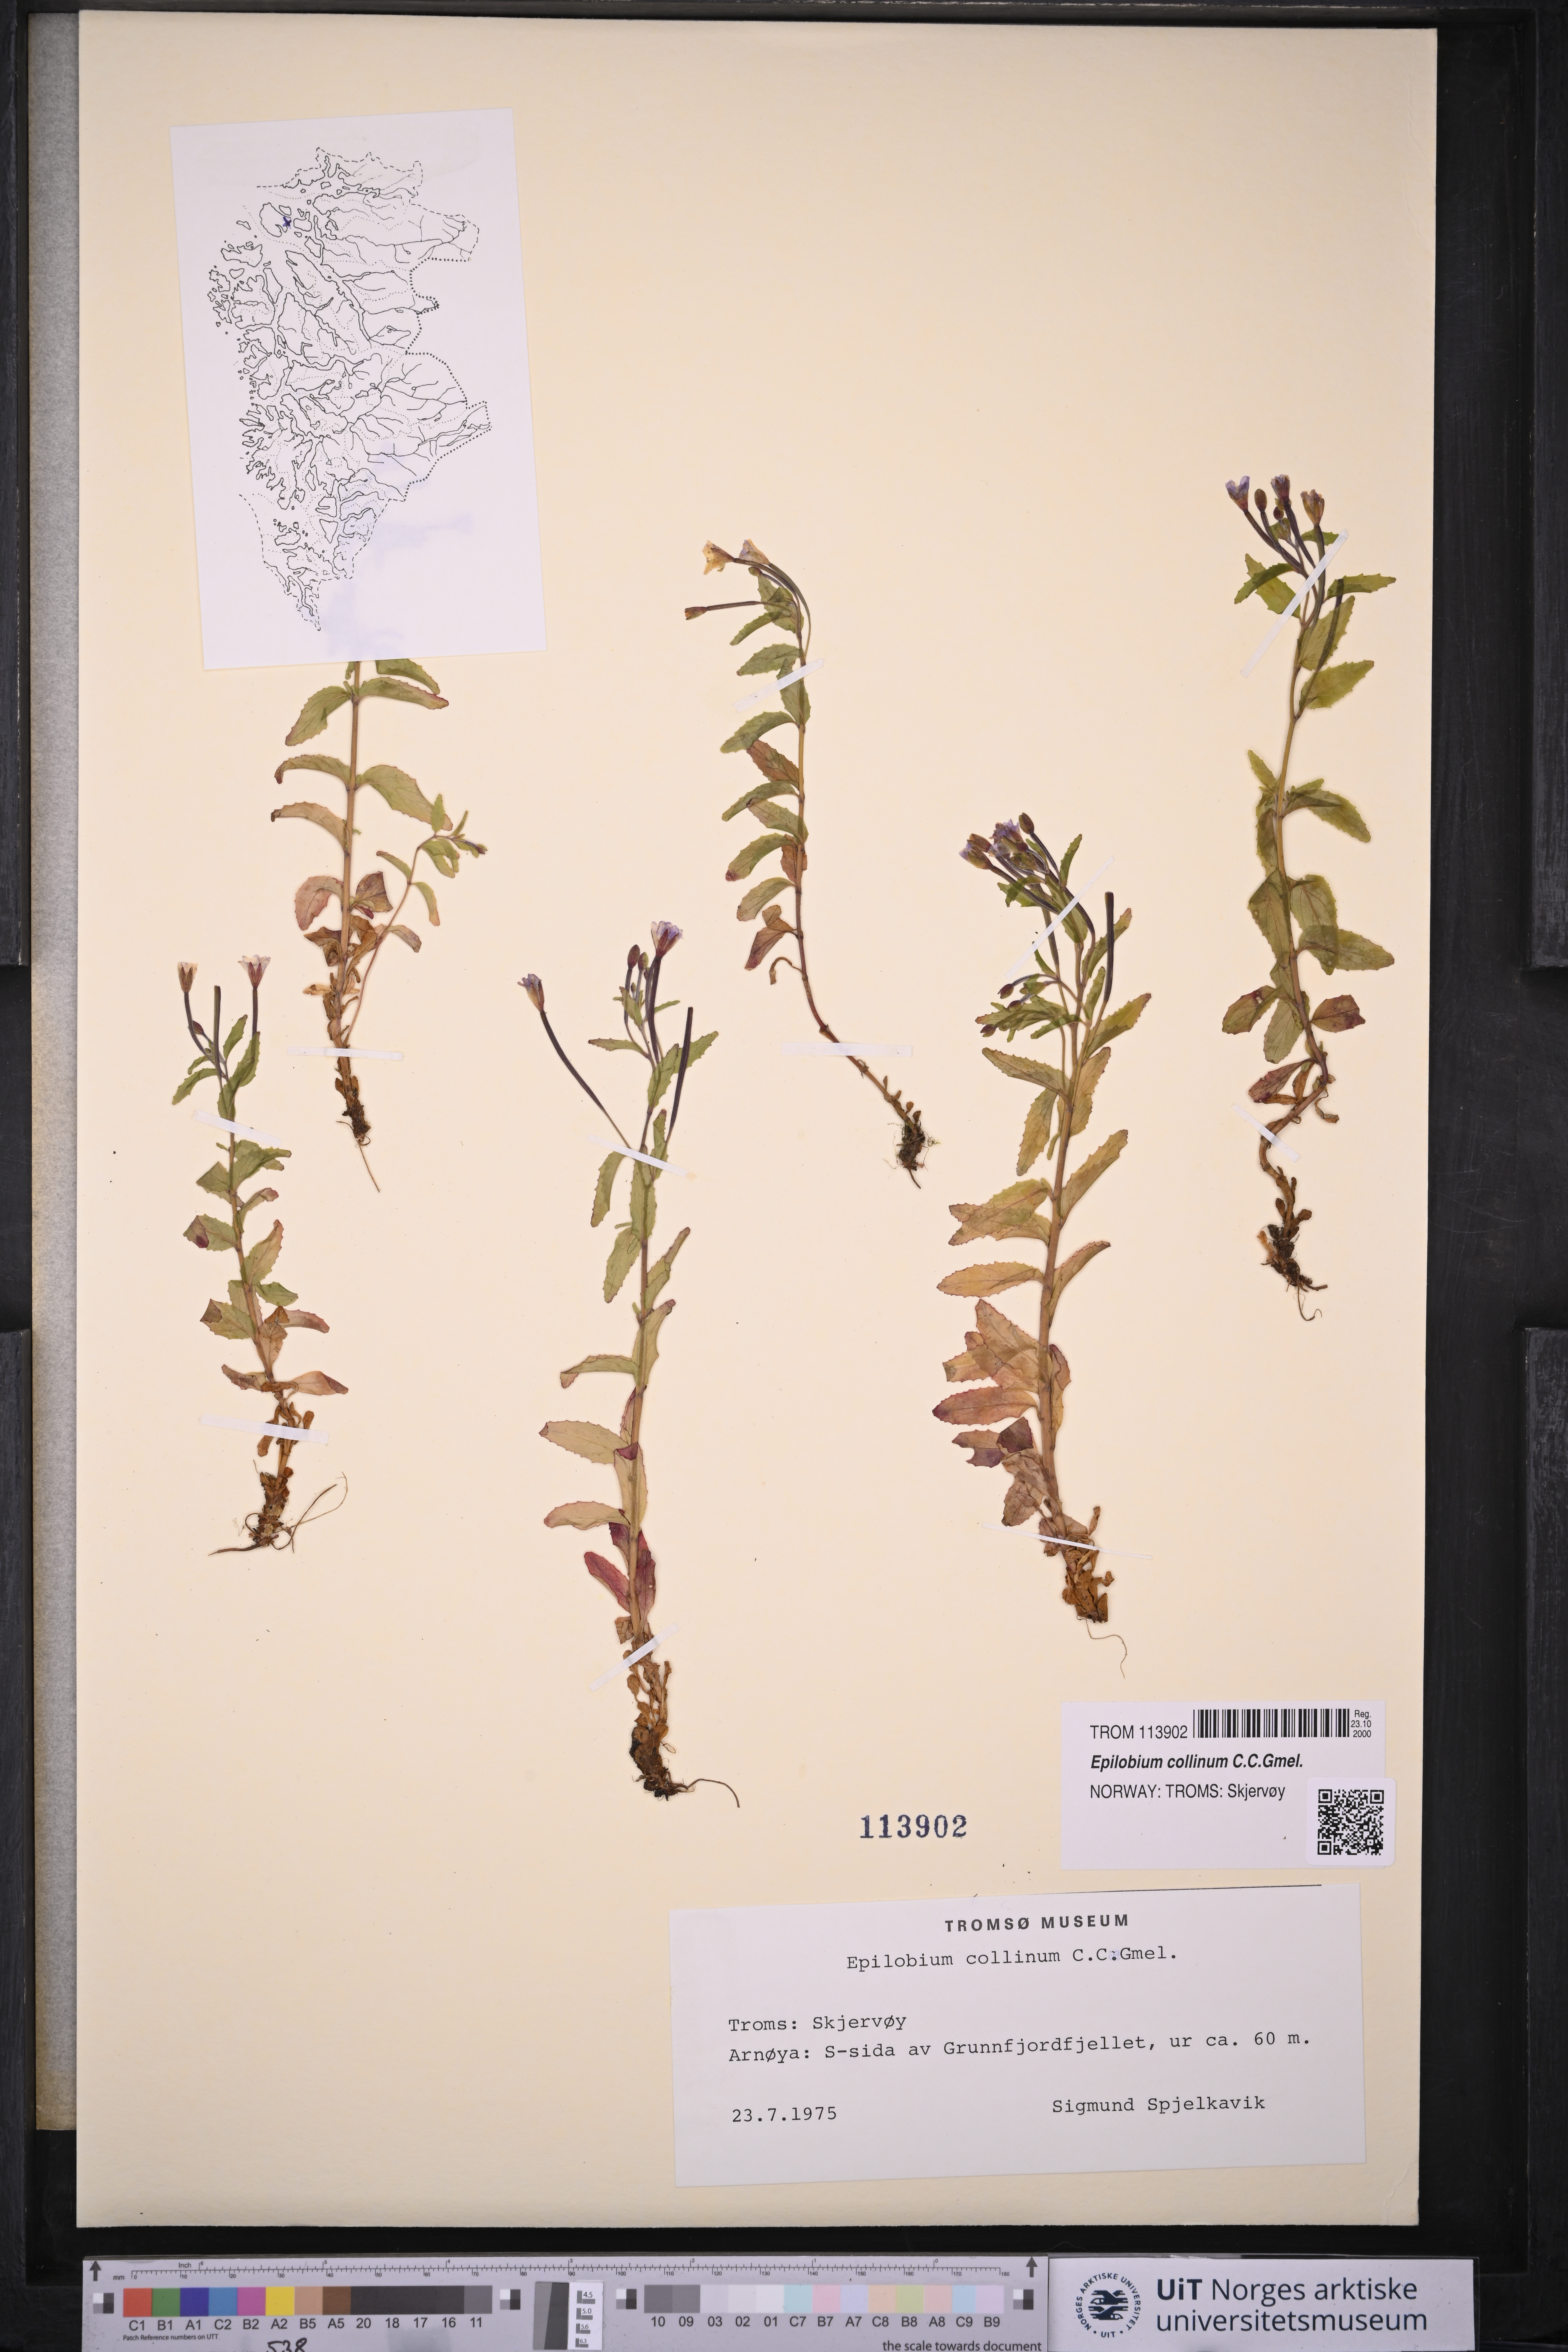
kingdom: Plantae
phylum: Tracheophyta
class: Magnoliopsida
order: Myrtales
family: Onagraceae
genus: Epilobium
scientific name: Epilobium collinum
